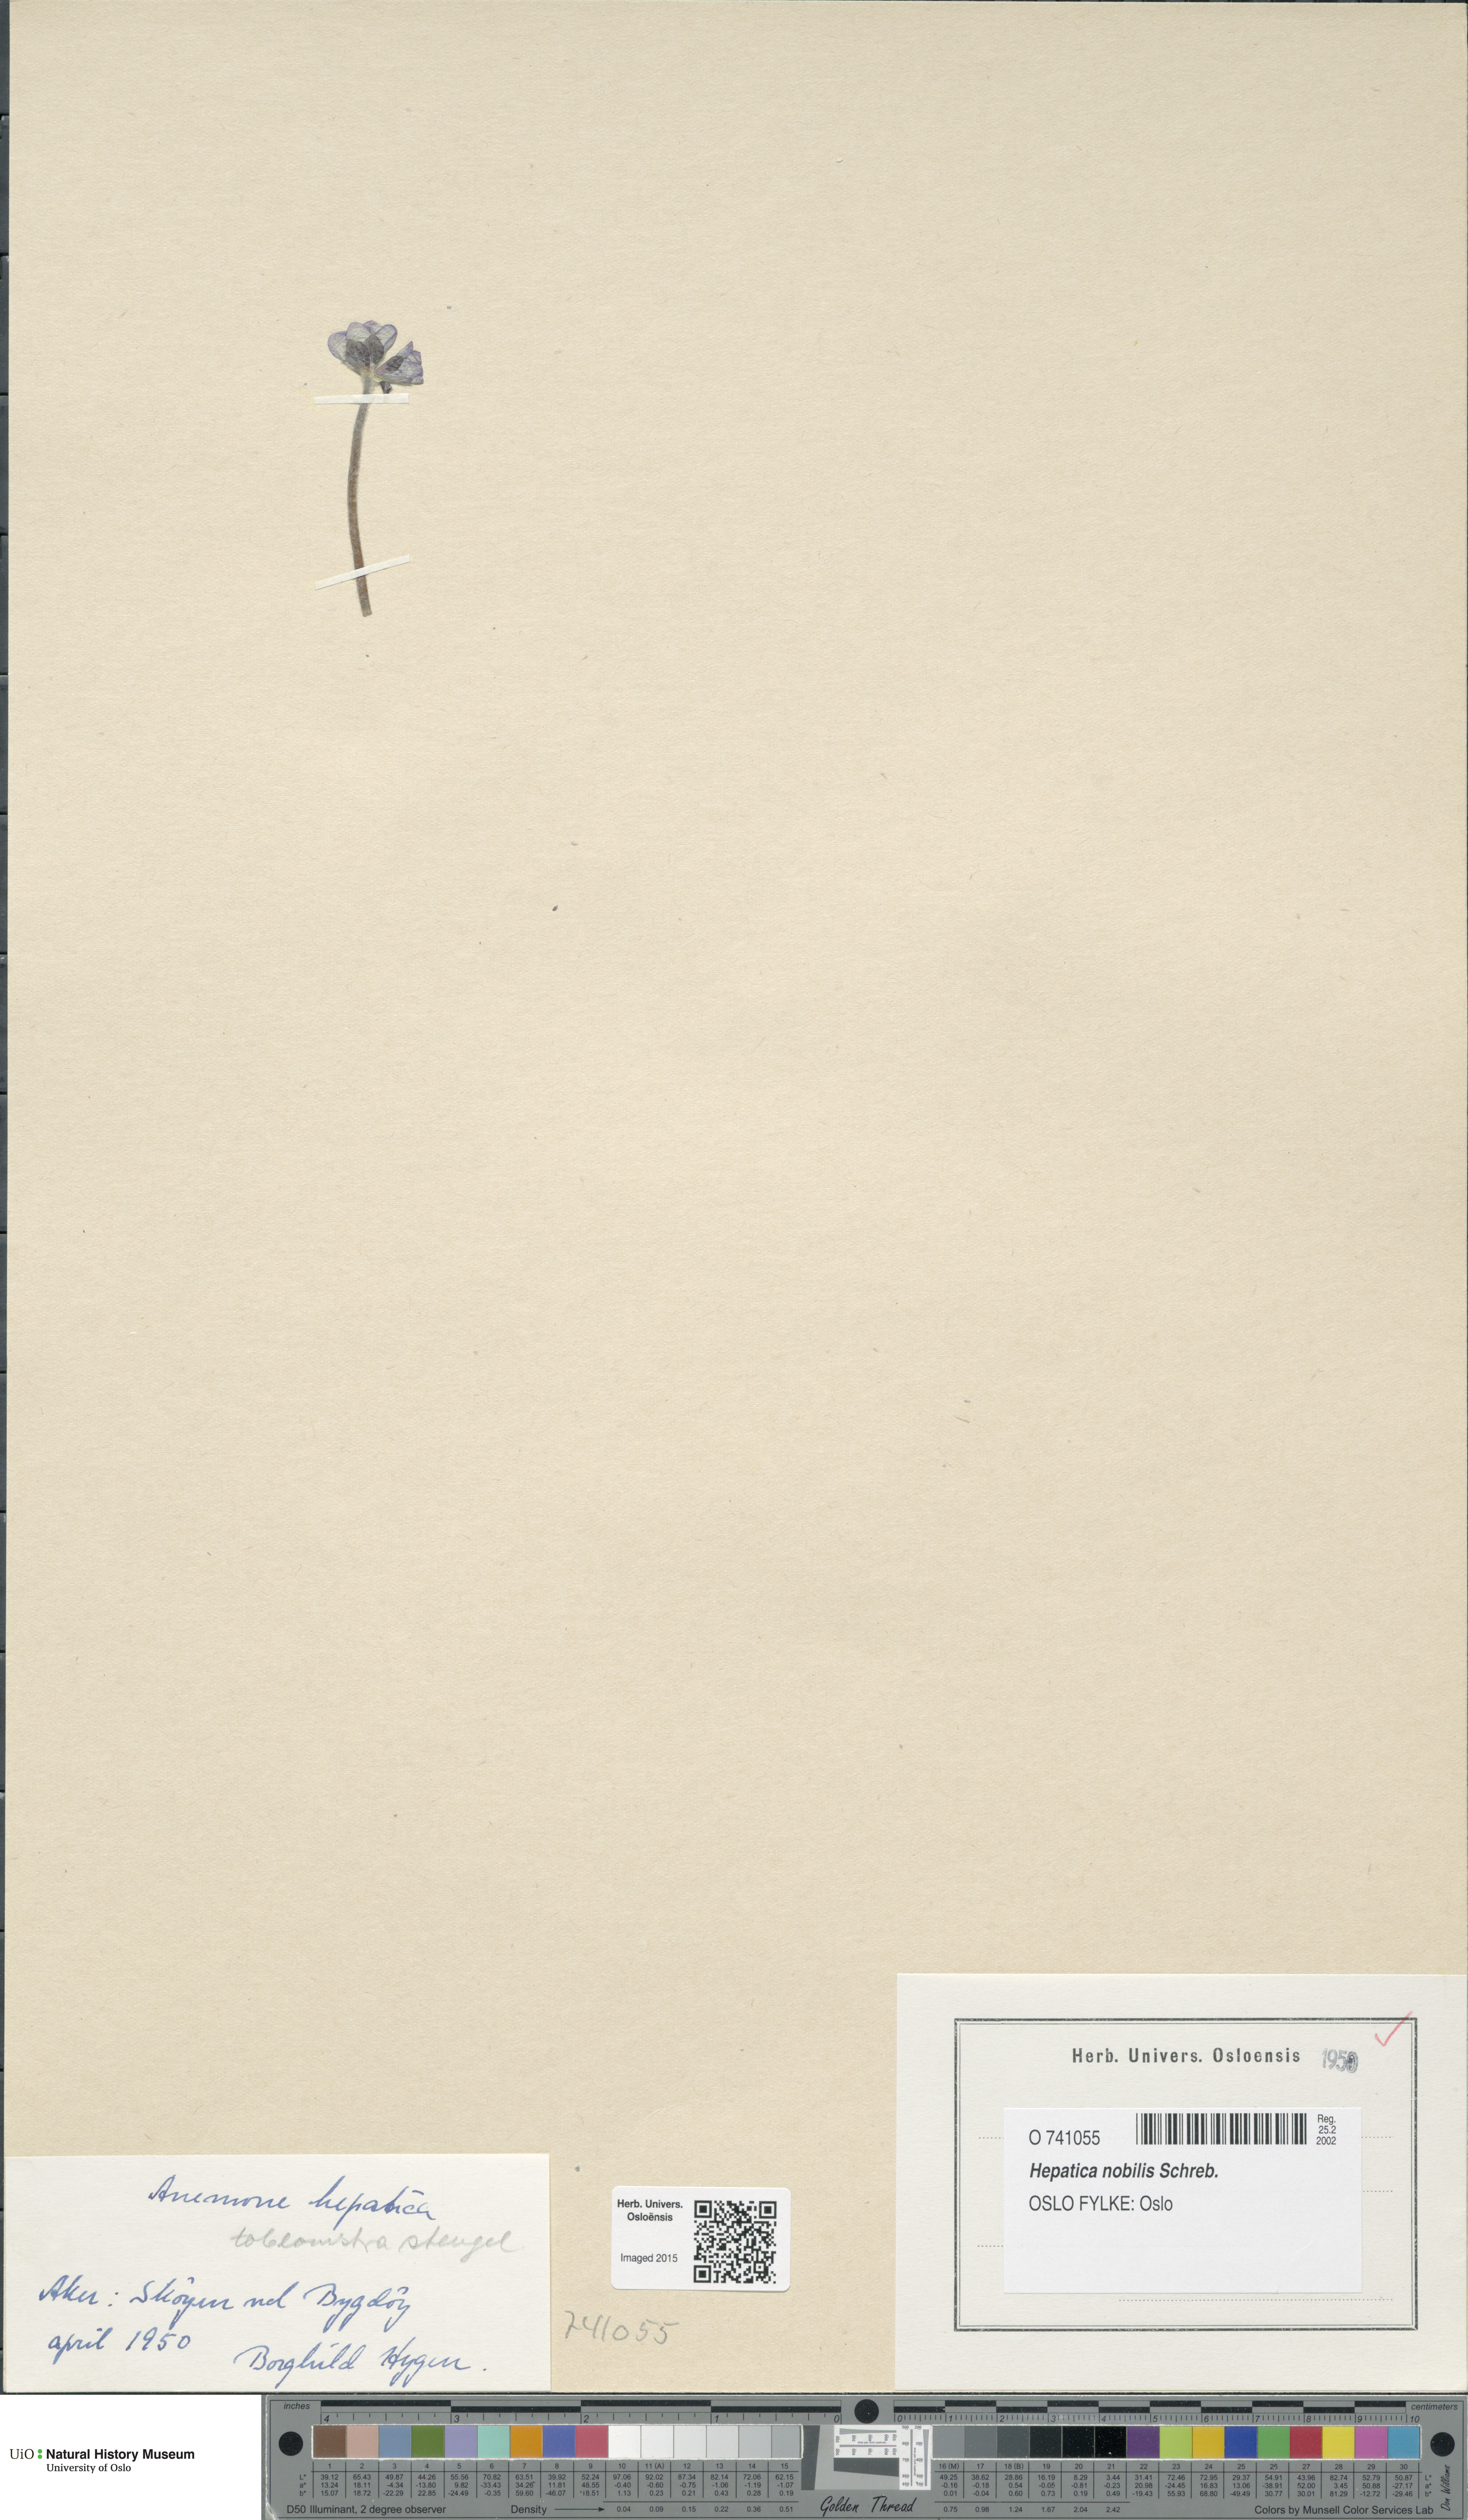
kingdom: Plantae
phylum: Tracheophyta
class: Magnoliopsida
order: Ranunculales
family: Ranunculaceae
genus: Hepatica
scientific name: Hepatica nobilis
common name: Liverleaf
